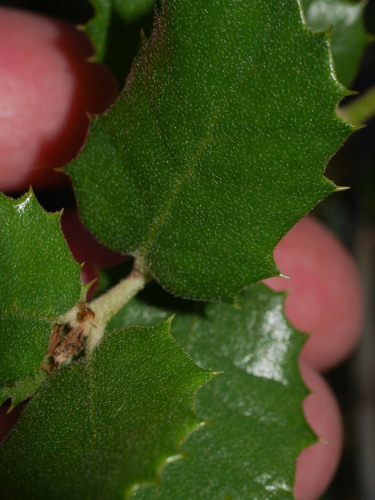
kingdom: Plantae
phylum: Tracheophyta
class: Magnoliopsida
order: Fagales
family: Fagaceae
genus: Quercus
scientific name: Quercus rotundifolia
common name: Holm oak
